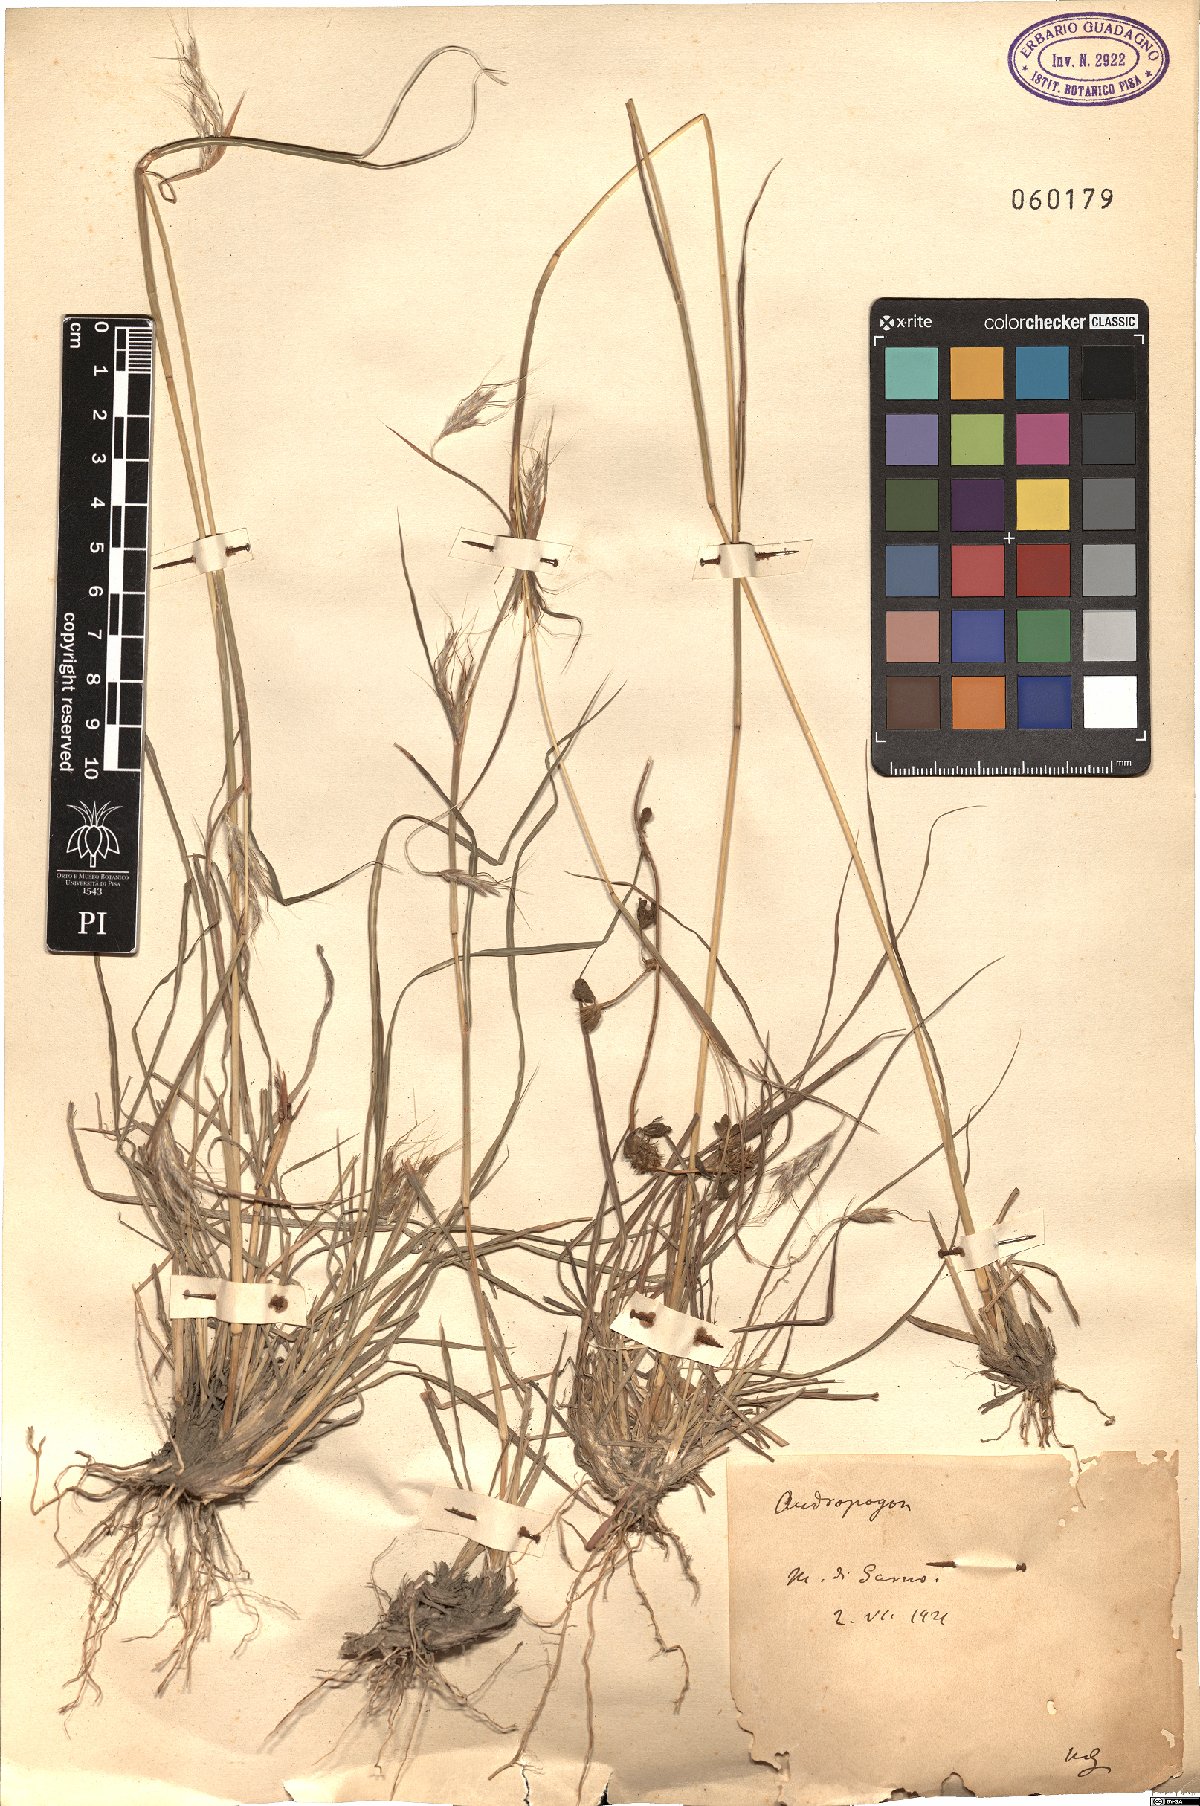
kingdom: Plantae
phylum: Tracheophyta
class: Liliopsida
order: Poales
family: Poaceae
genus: Andropogon
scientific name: Andropogon
